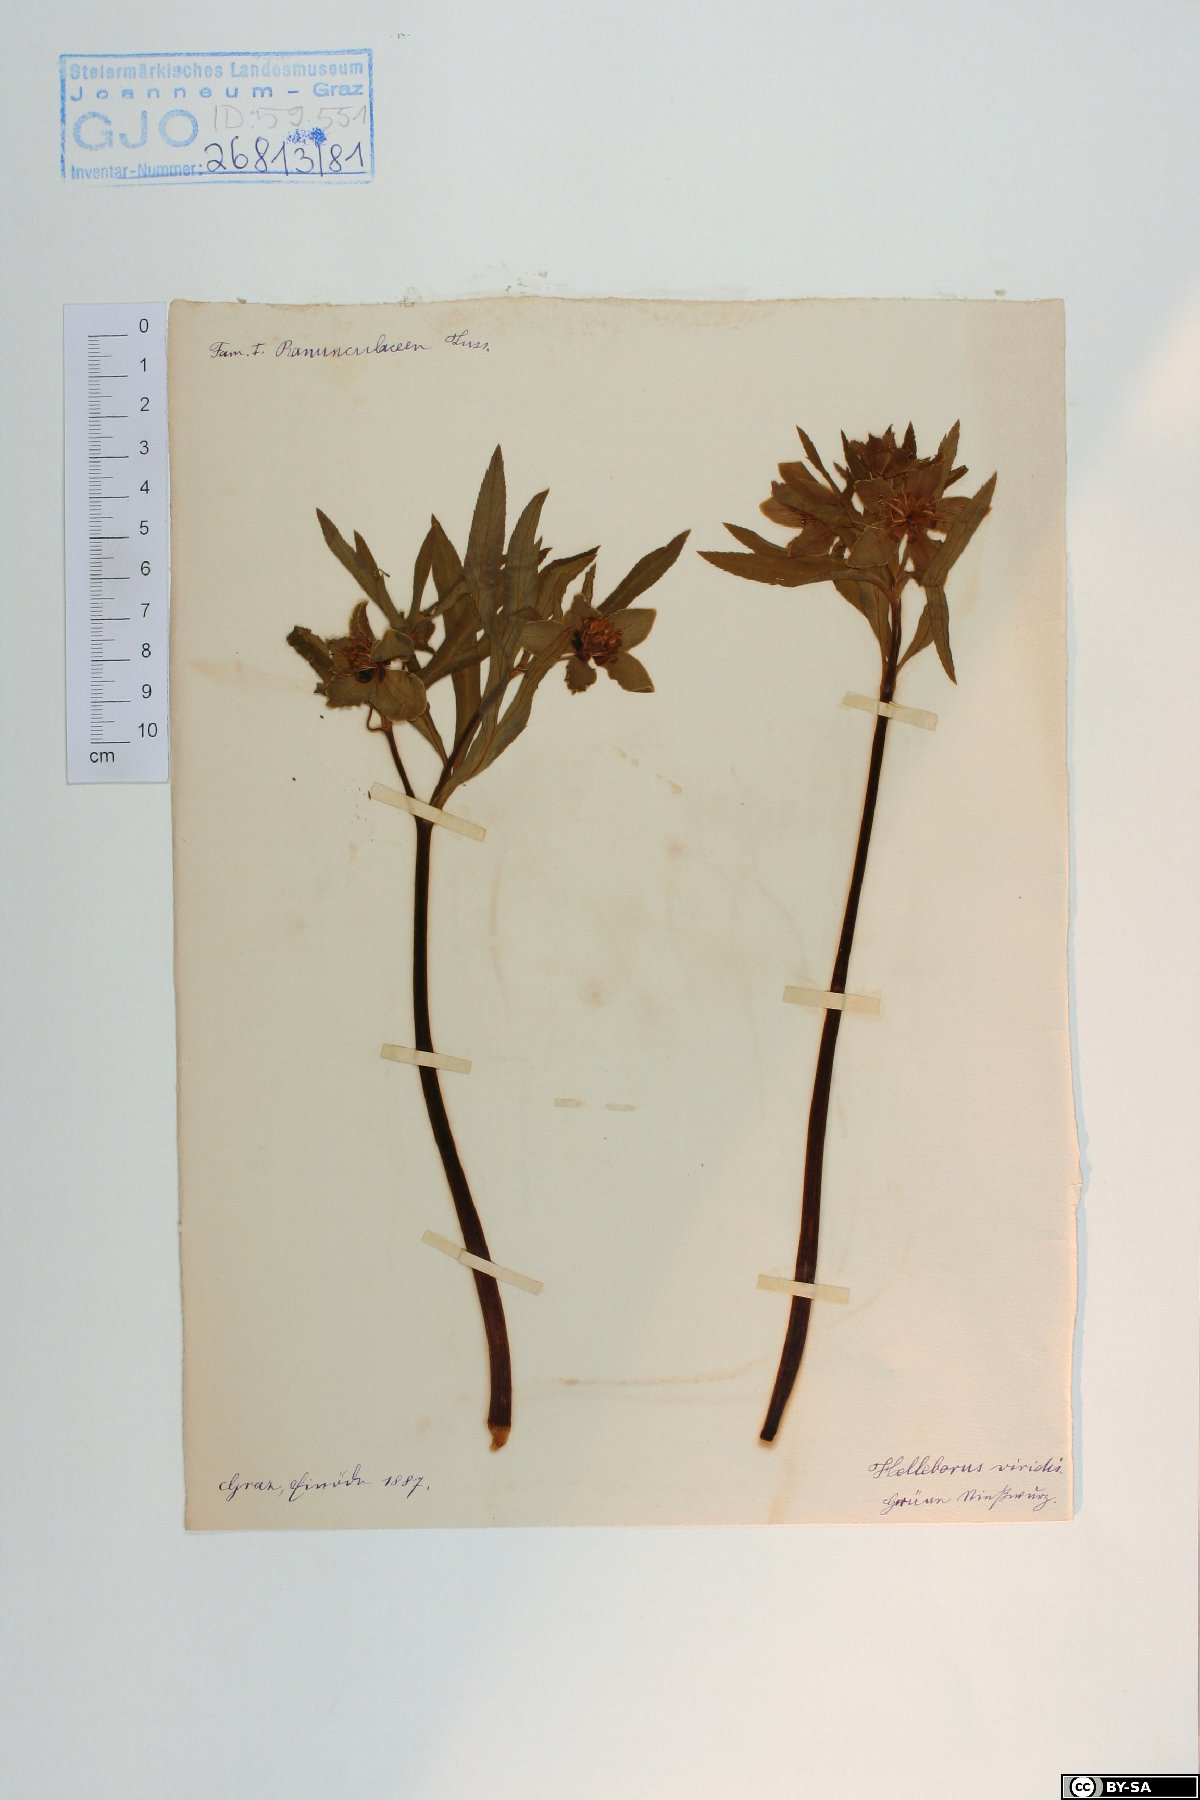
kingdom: Plantae
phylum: Tracheophyta
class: Magnoliopsida
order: Ranunculales
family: Ranunculaceae
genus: Helleborus
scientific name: Helleborus dumetorum
